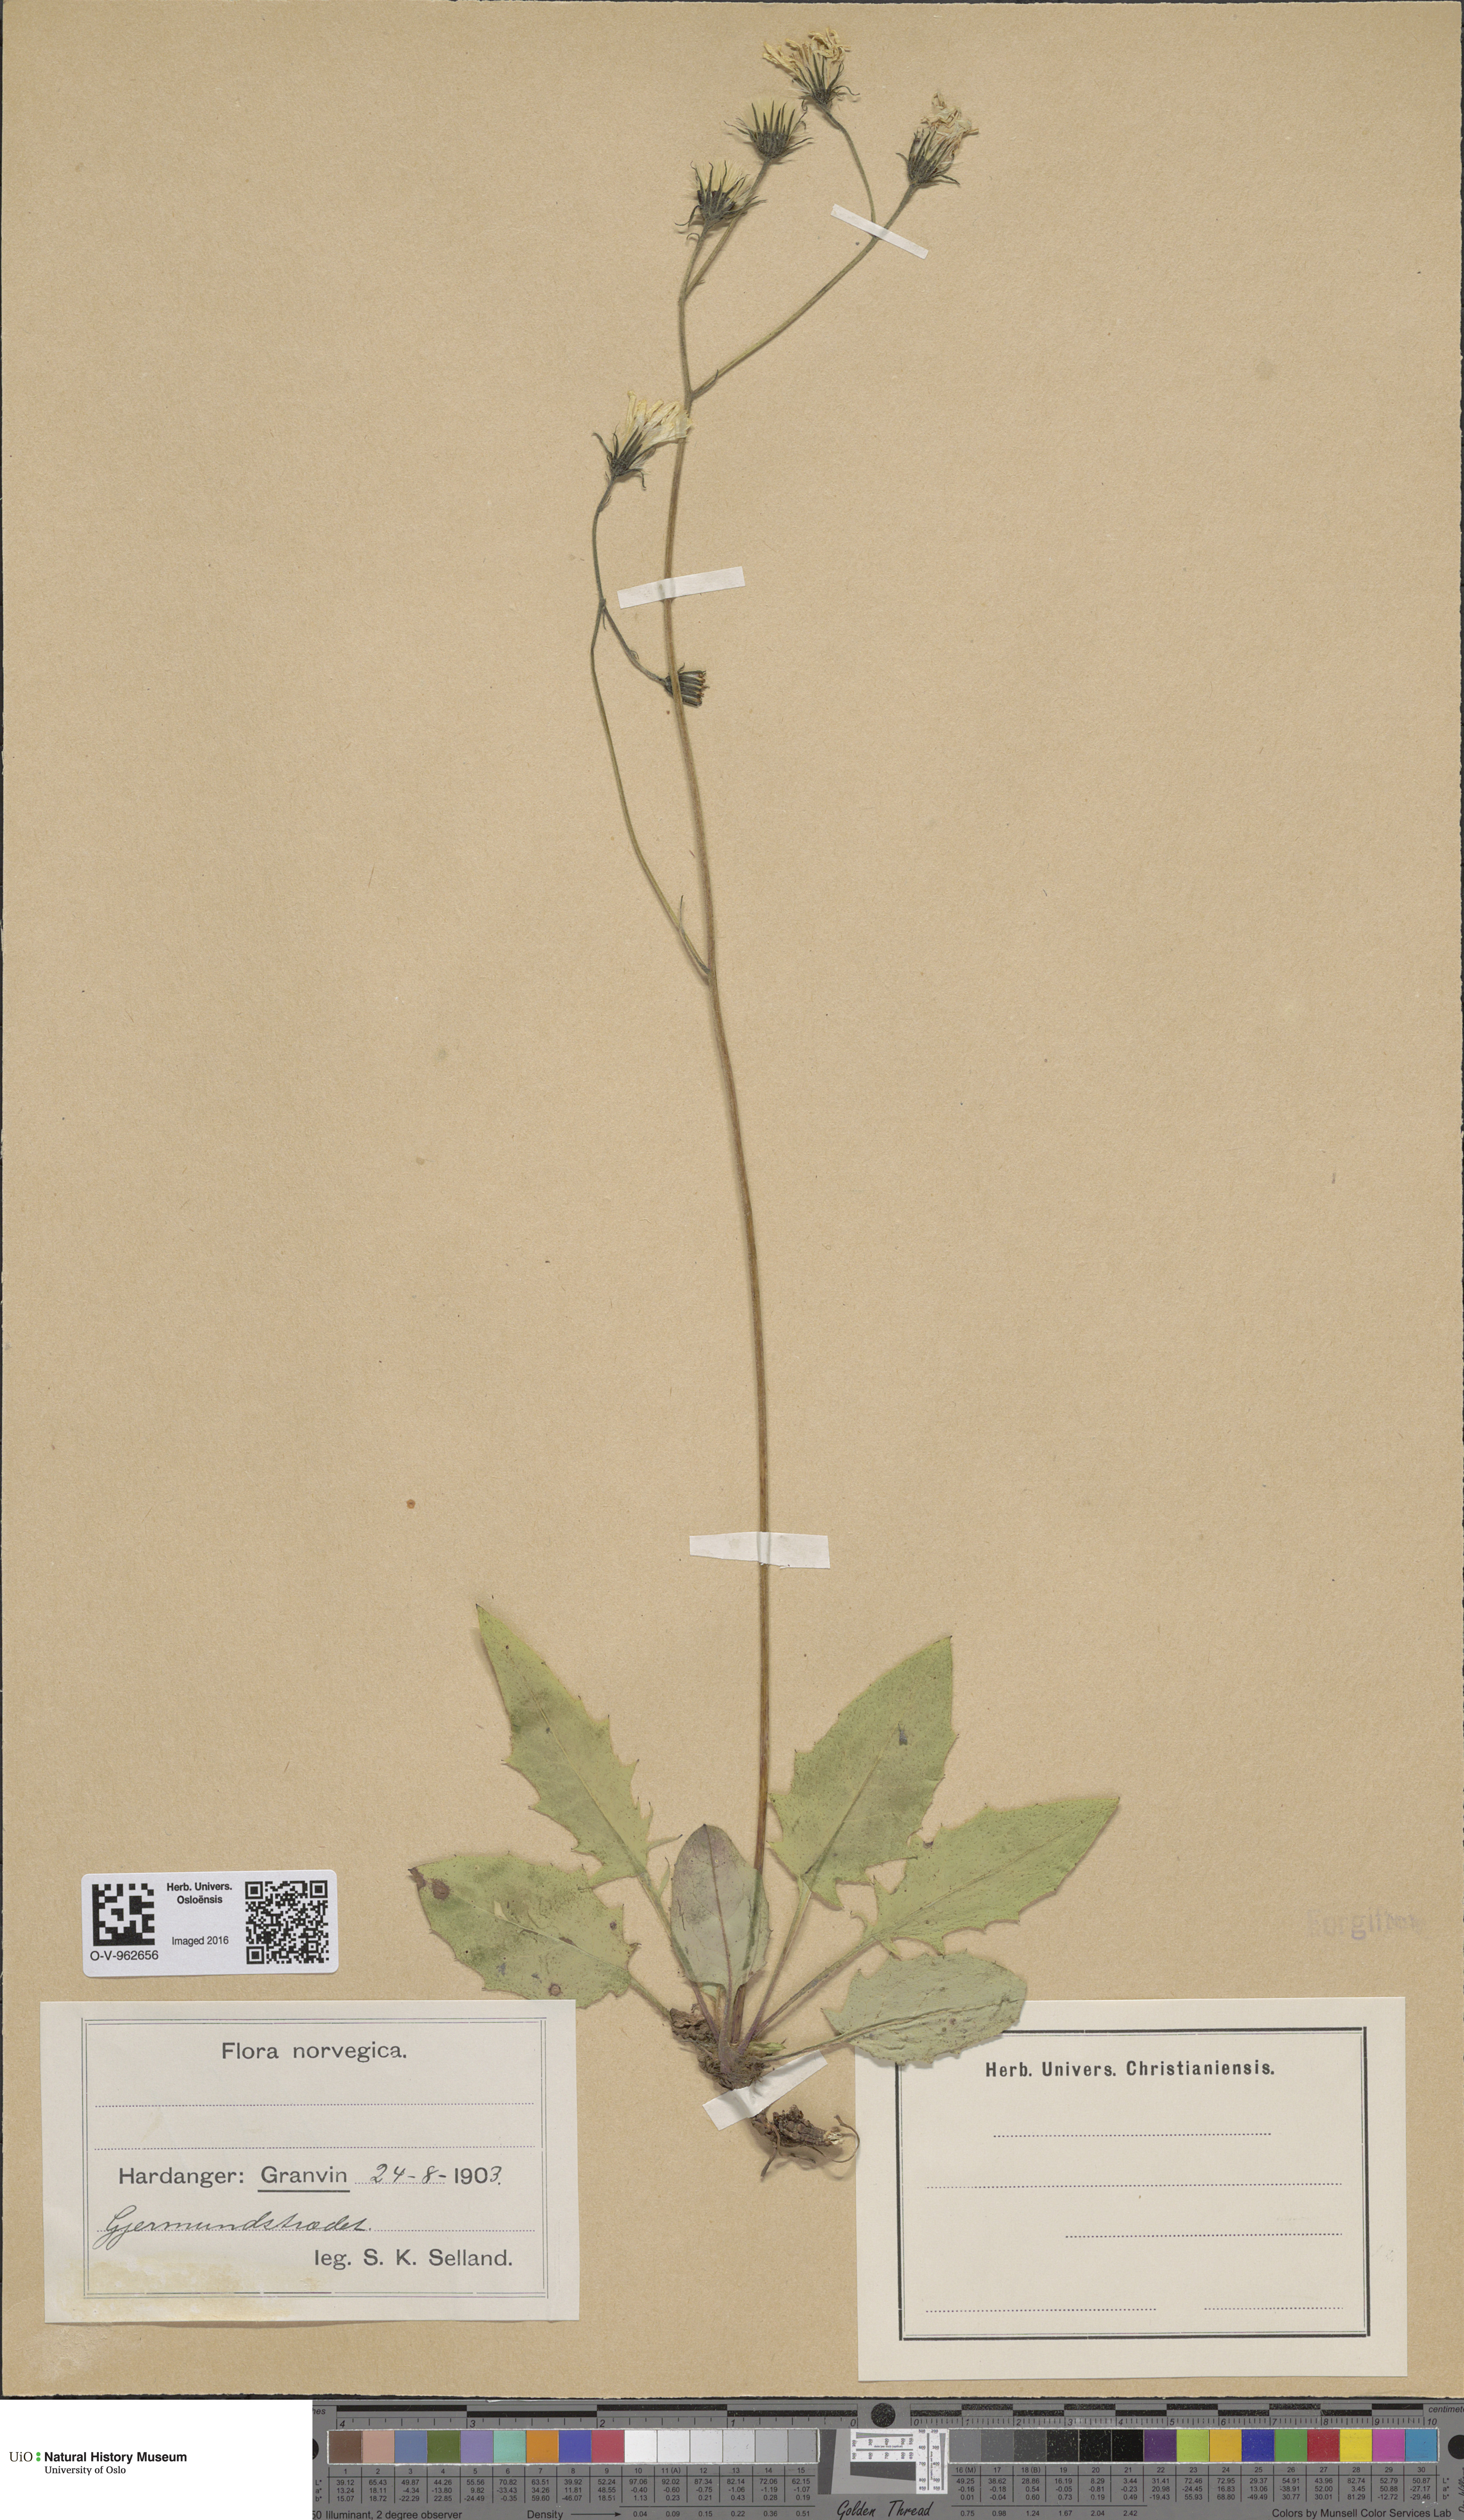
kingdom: Plantae
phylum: Tracheophyta
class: Magnoliopsida
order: Asterales
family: Asteraceae
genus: Hieracium
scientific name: Hieracium
